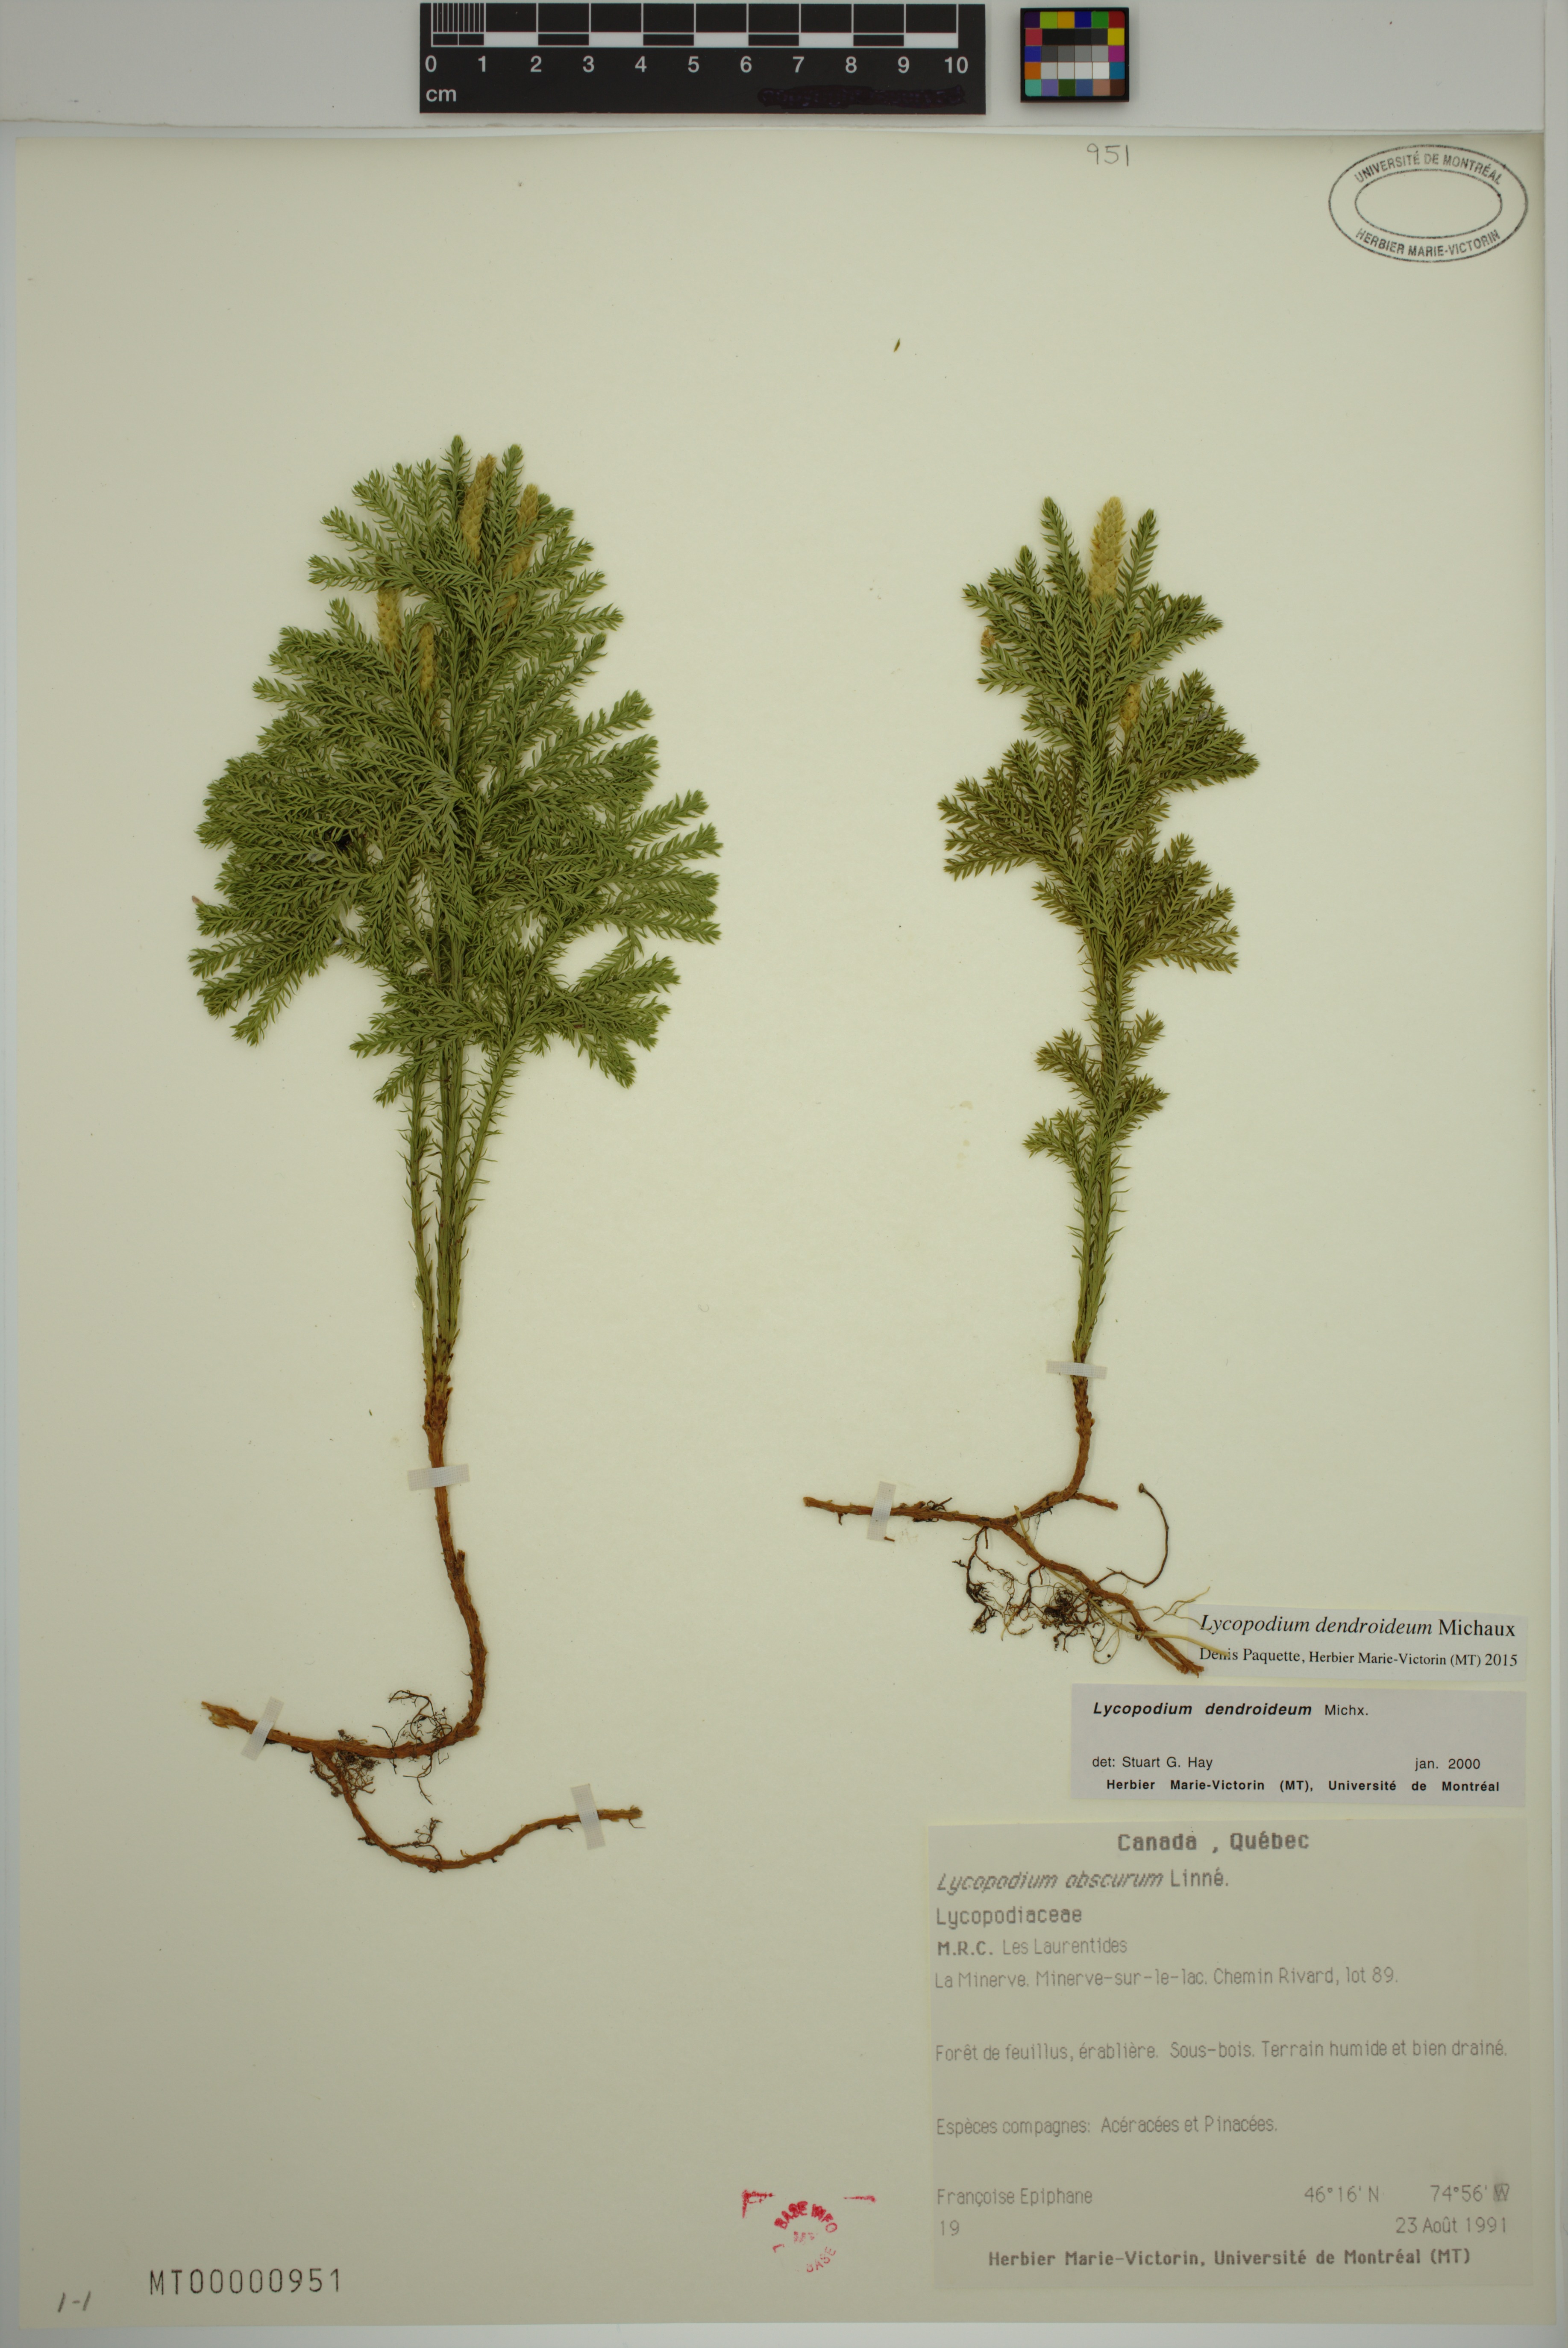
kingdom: Plantae
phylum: Tracheophyta
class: Lycopodiopsida
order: Lycopodiales
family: Lycopodiaceae
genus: Dendrolycopodium
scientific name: Dendrolycopodium obscurum
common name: Common ground-pine
